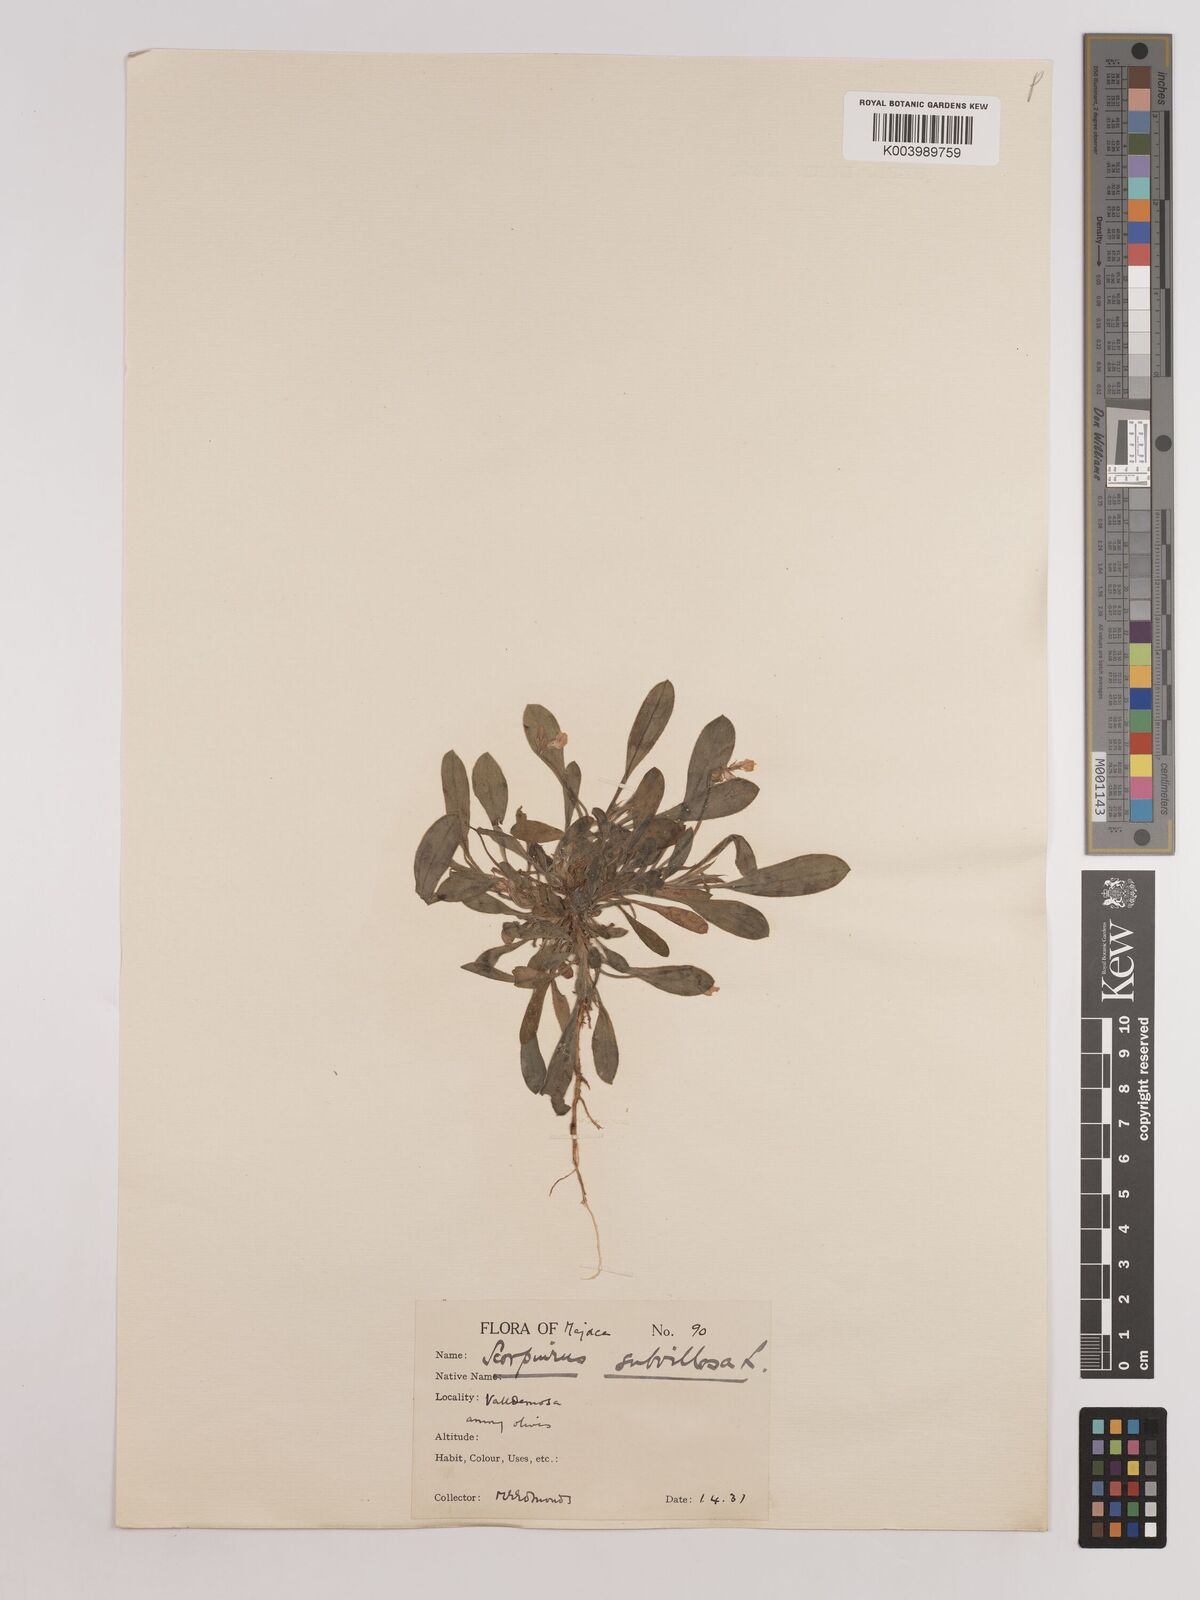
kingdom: Plantae
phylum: Tracheophyta
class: Magnoliopsida
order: Fabales
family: Fabaceae
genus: Scorpiurus
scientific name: Scorpiurus muricatus
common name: Caterpillar-plant
